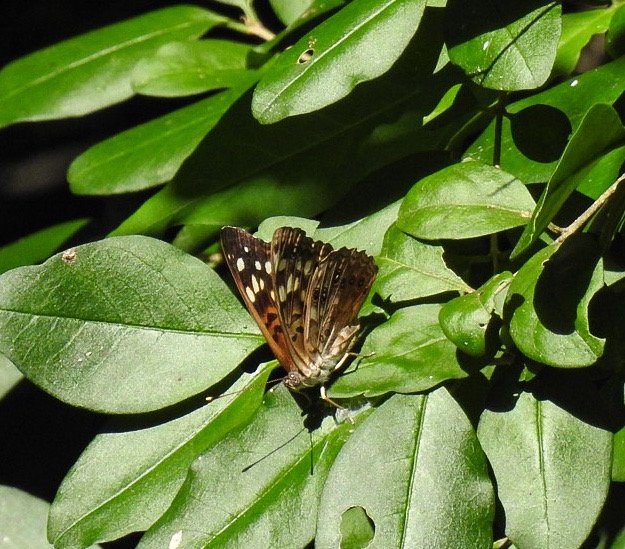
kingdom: Animalia
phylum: Arthropoda
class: Insecta
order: Lepidoptera
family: Nymphalidae
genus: Asterocampa
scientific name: Asterocampa celtis
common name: Hackberry Emperor
